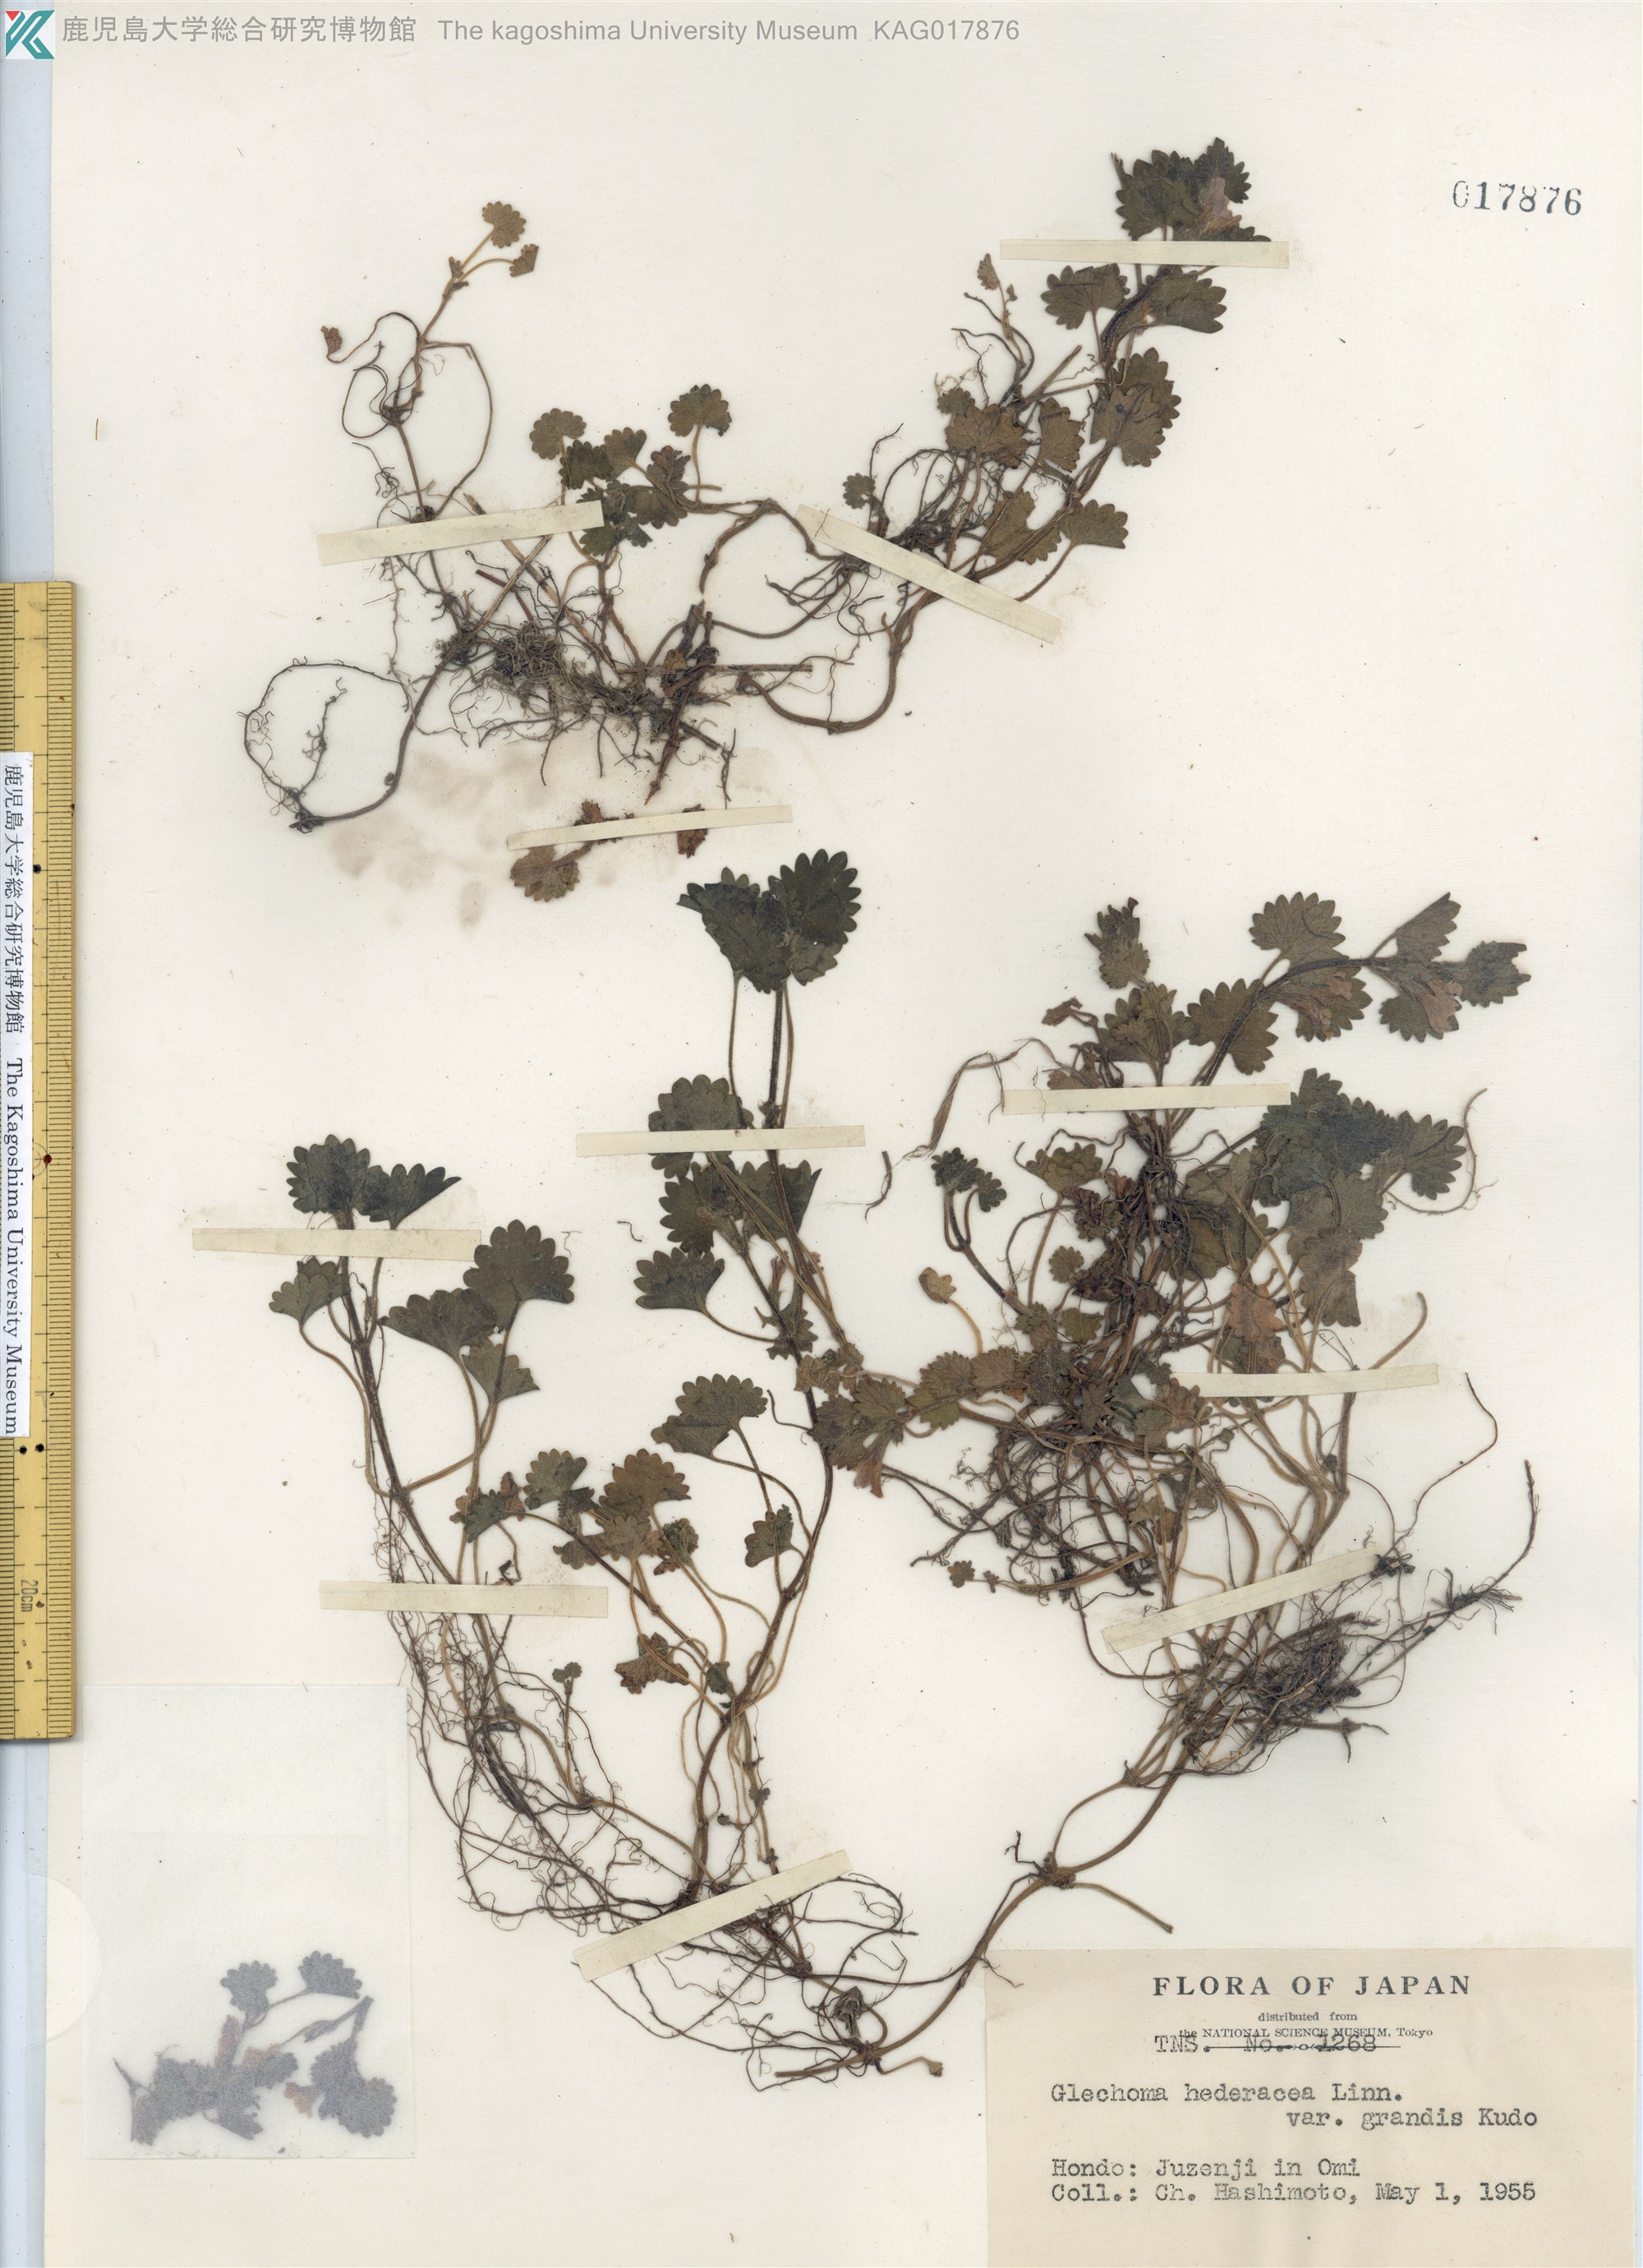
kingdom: Plantae
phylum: Tracheophyta
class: Magnoliopsida
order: Lamiales
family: Lamiaceae
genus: Glechoma
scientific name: Glechoma grandis
